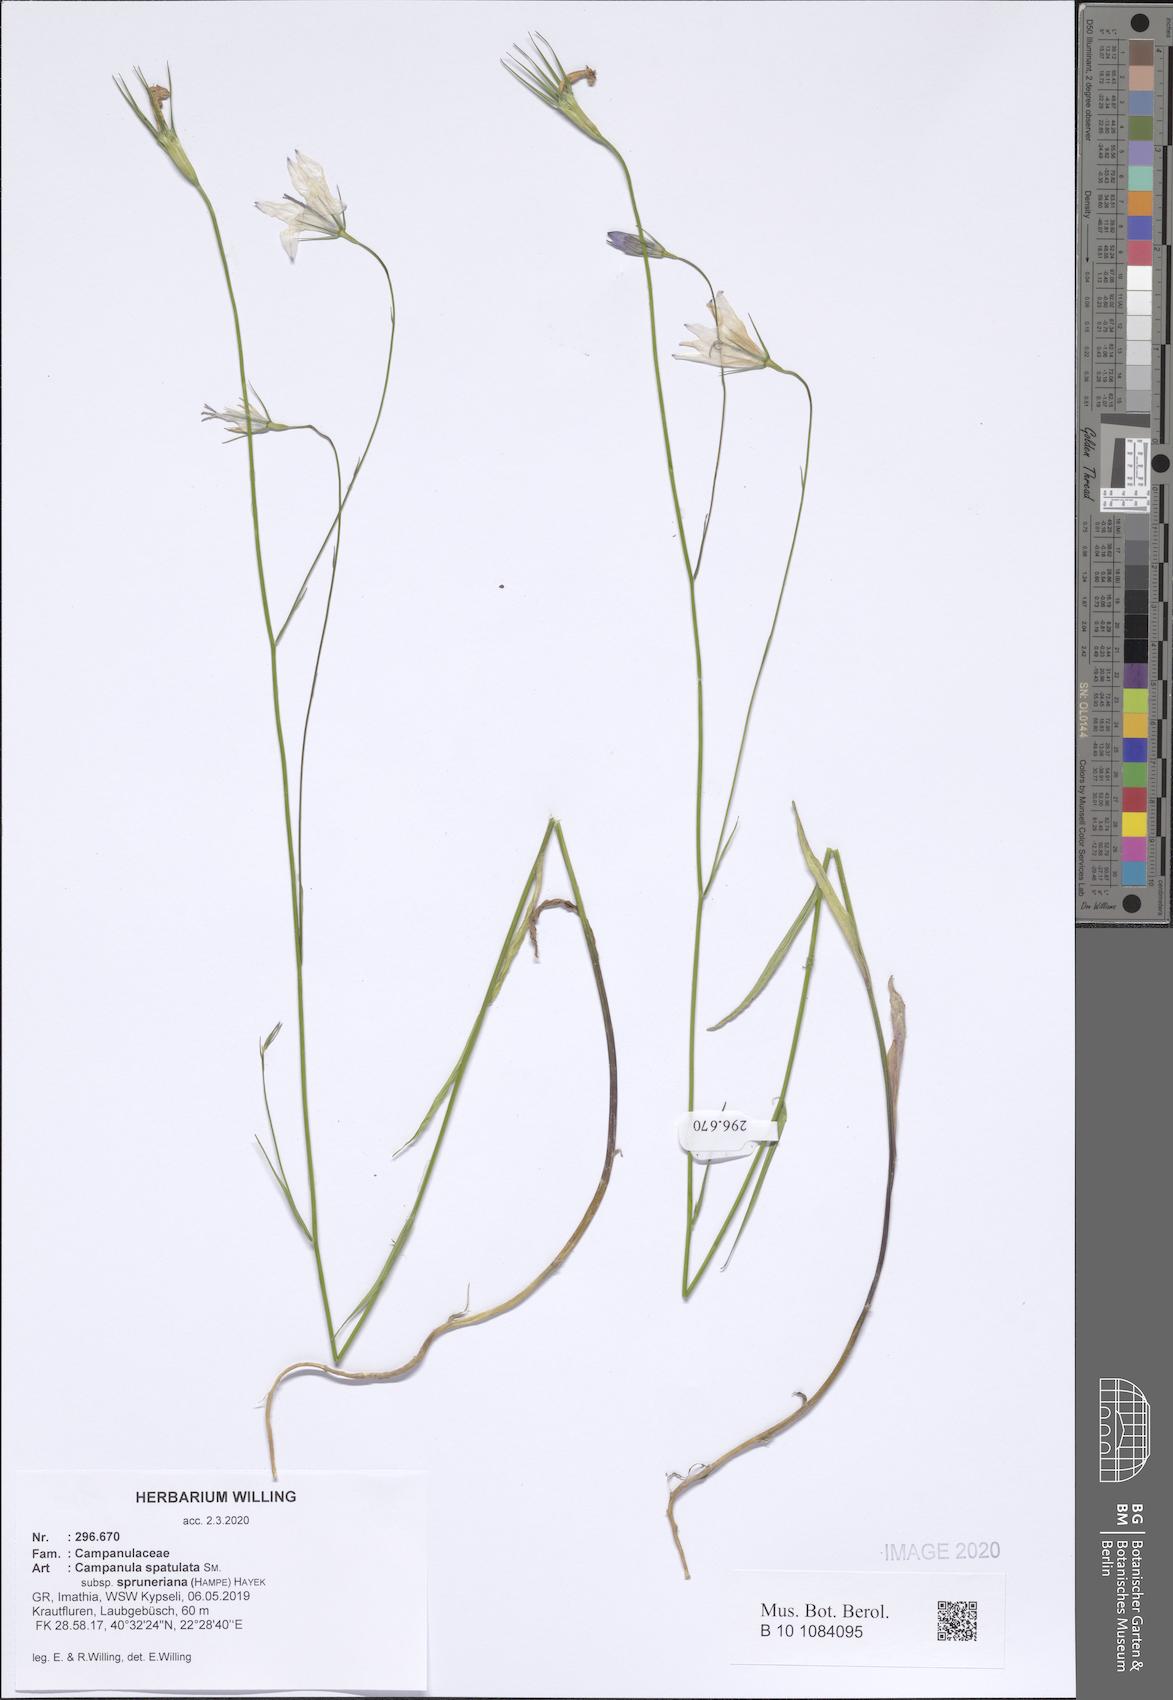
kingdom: Plantae
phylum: Tracheophyta
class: Magnoliopsida
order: Asterales
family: Campanulaceae
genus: Campanula
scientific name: Campanula spatulata
